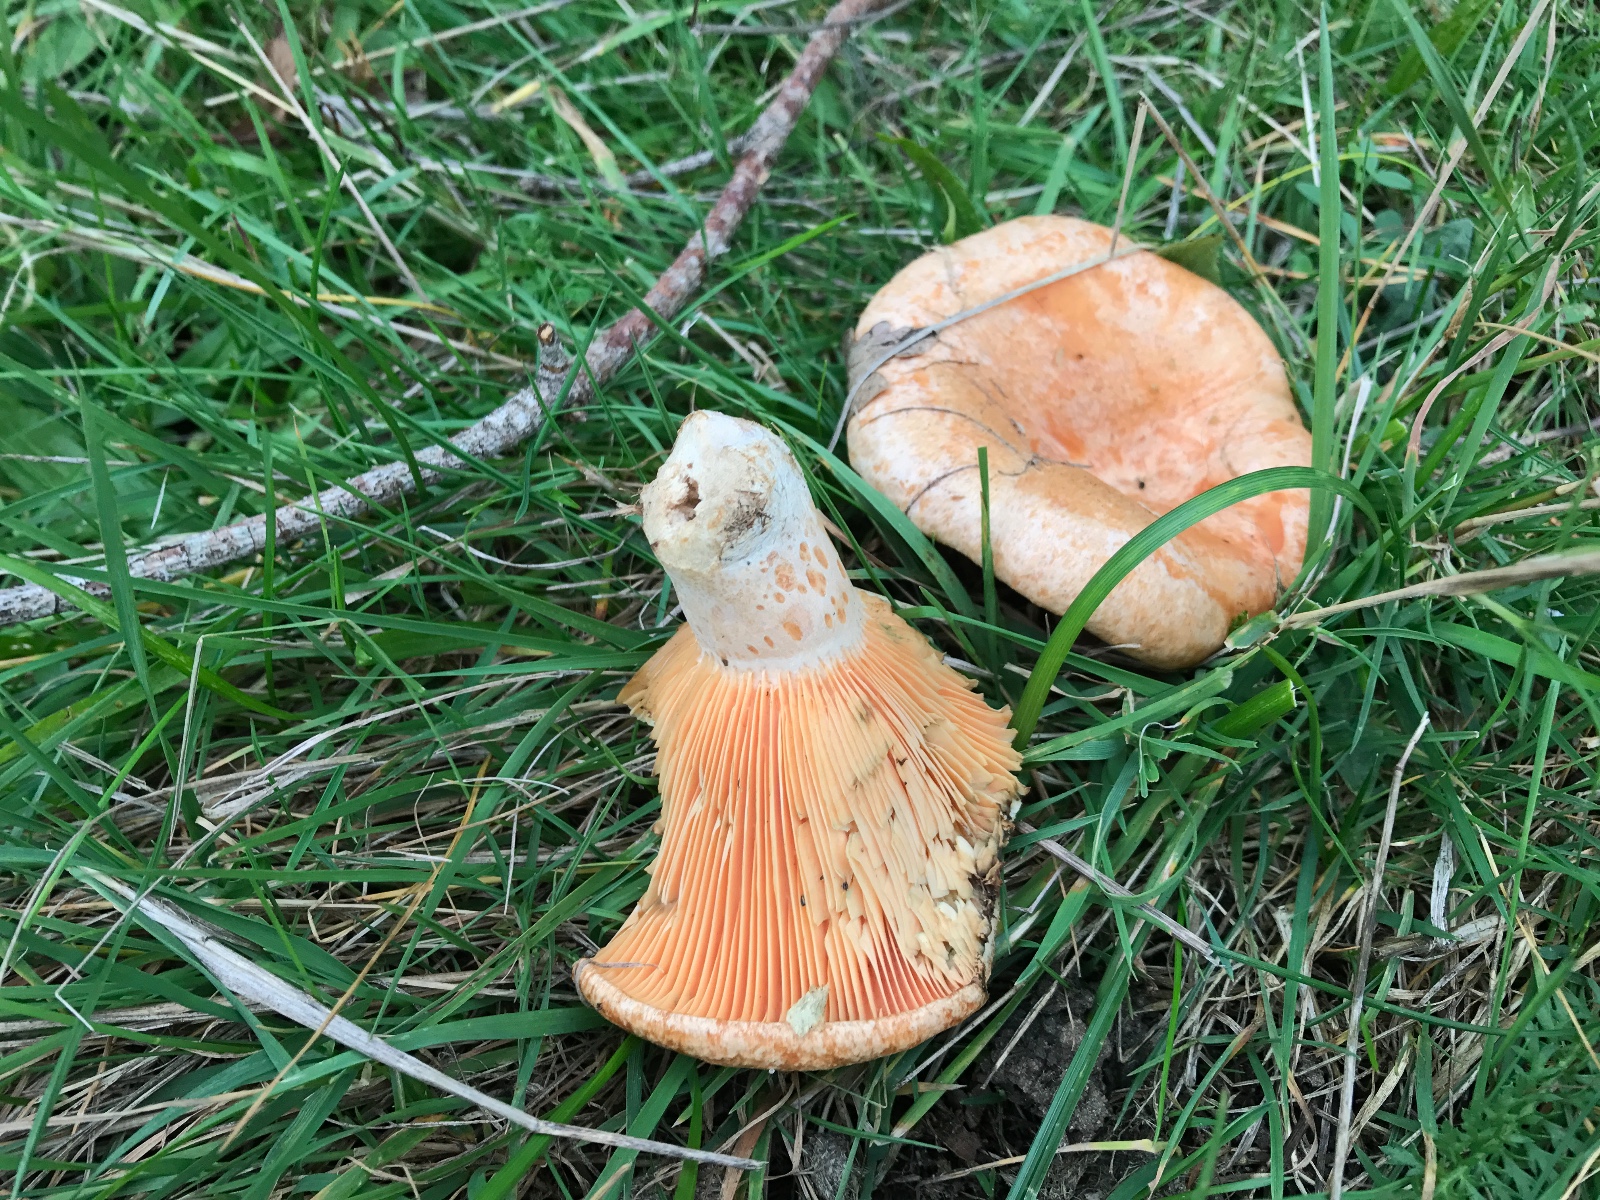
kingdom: Fungi
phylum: Basidiomycota
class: Agaricomycetes
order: Russulales
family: Russulaceae
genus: Lactarius
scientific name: Lactarius deliciosus
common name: velsmagende mælkehat
